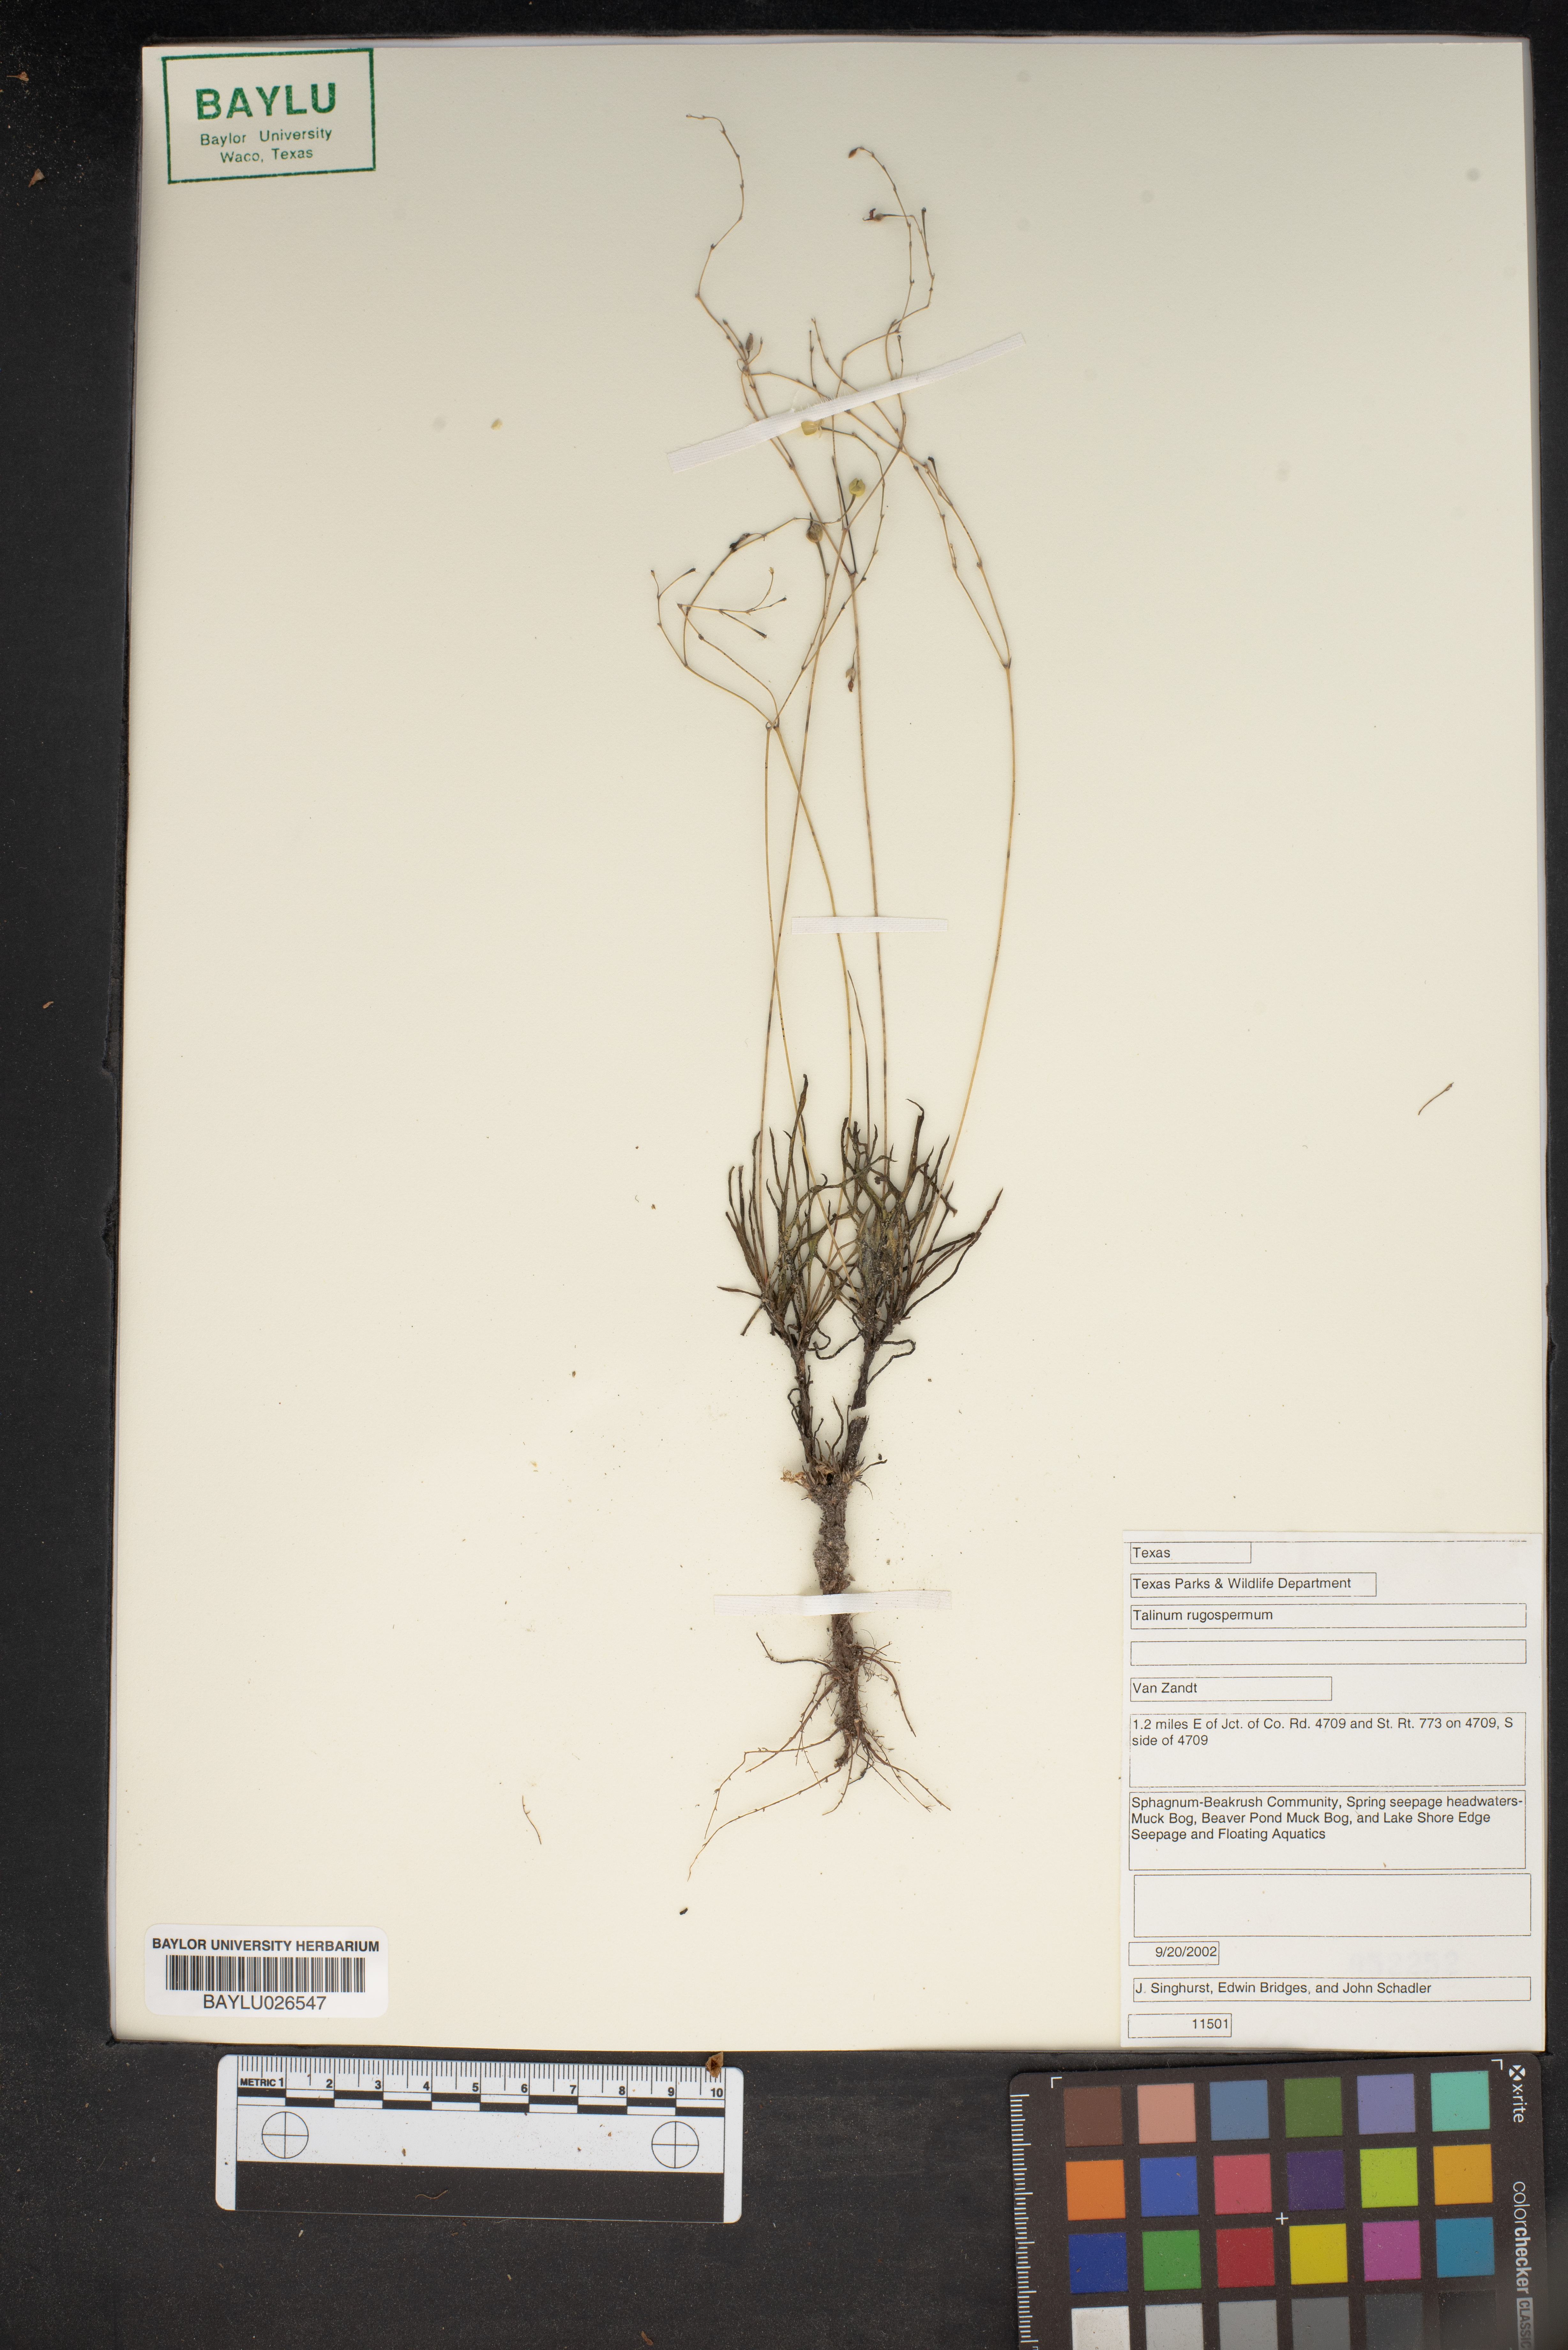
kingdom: Plantae
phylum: Tracheophyta
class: Magnoliopsida
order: Caryophyllales
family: Montiaceae
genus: Phemeranthus
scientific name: Phemeranthus rugospermus
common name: Prairie fameflower
